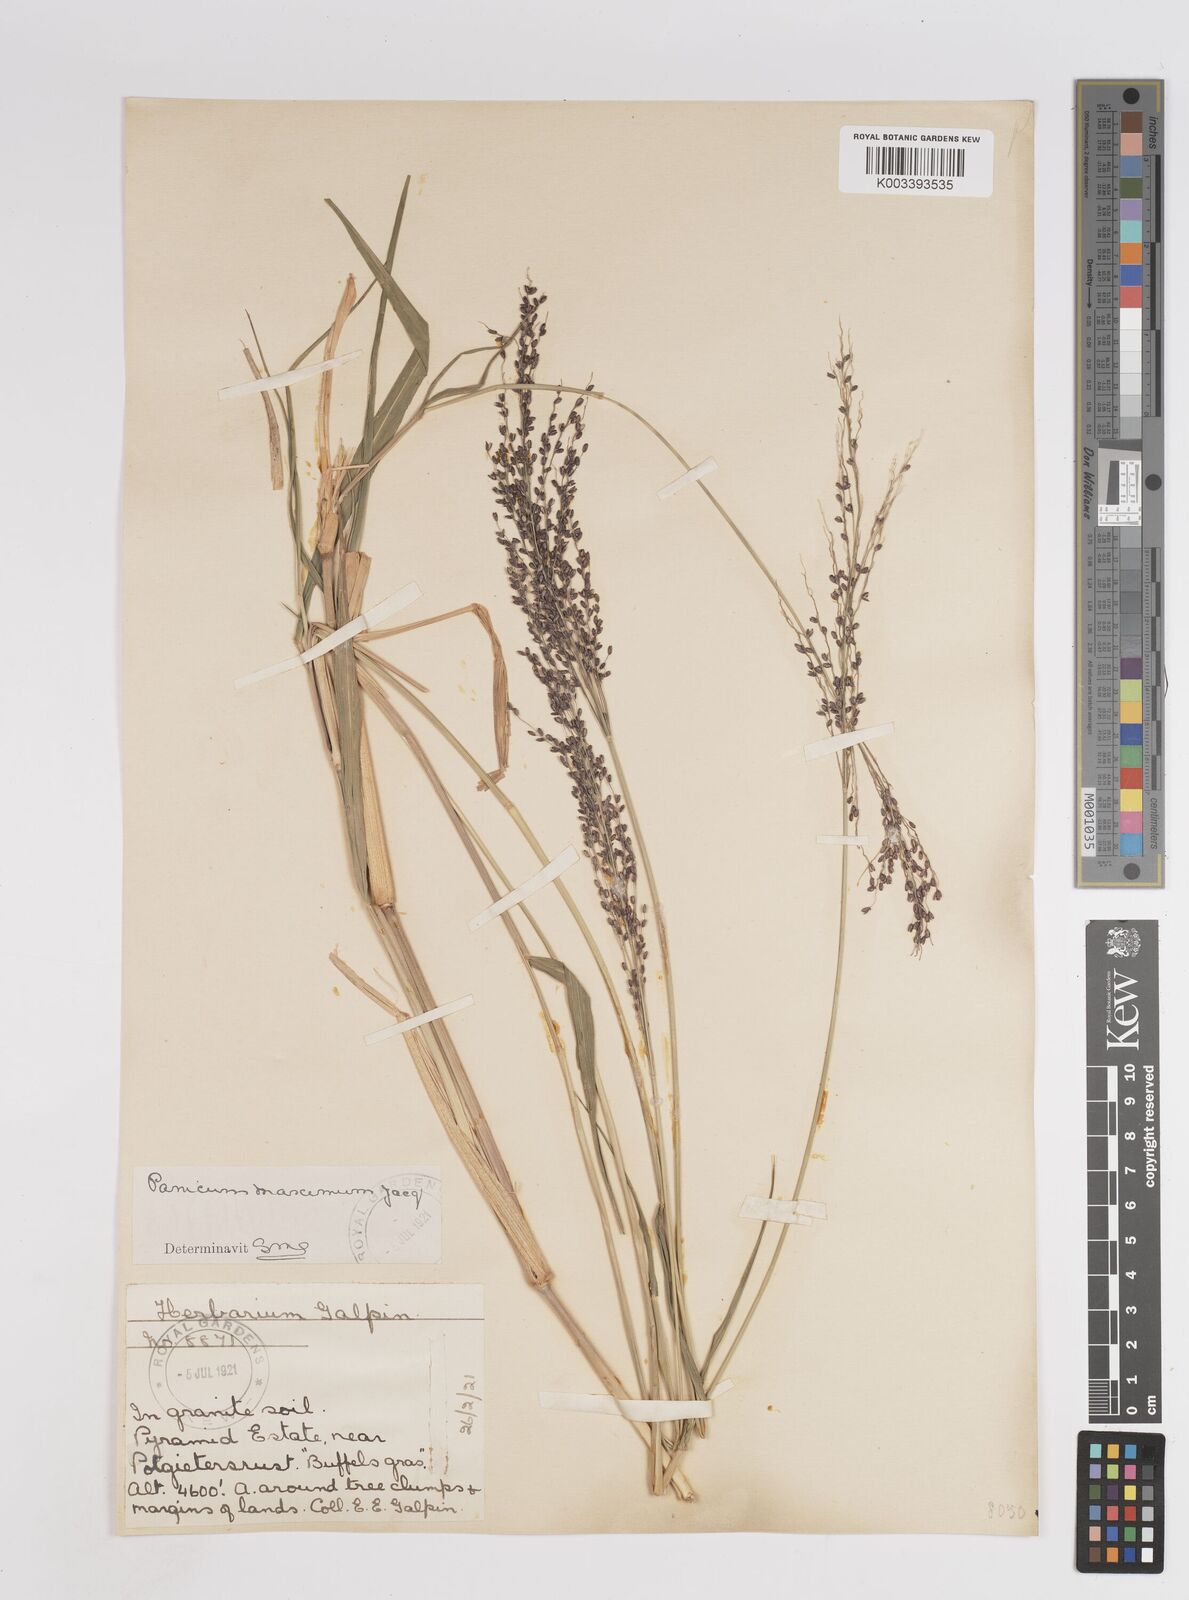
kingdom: Plantae
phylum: Tracheophyta
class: Liliopsida
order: Poales
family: Poaceae
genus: Megathyrsus
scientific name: Megathyrsus maximus
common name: Guineagrass
